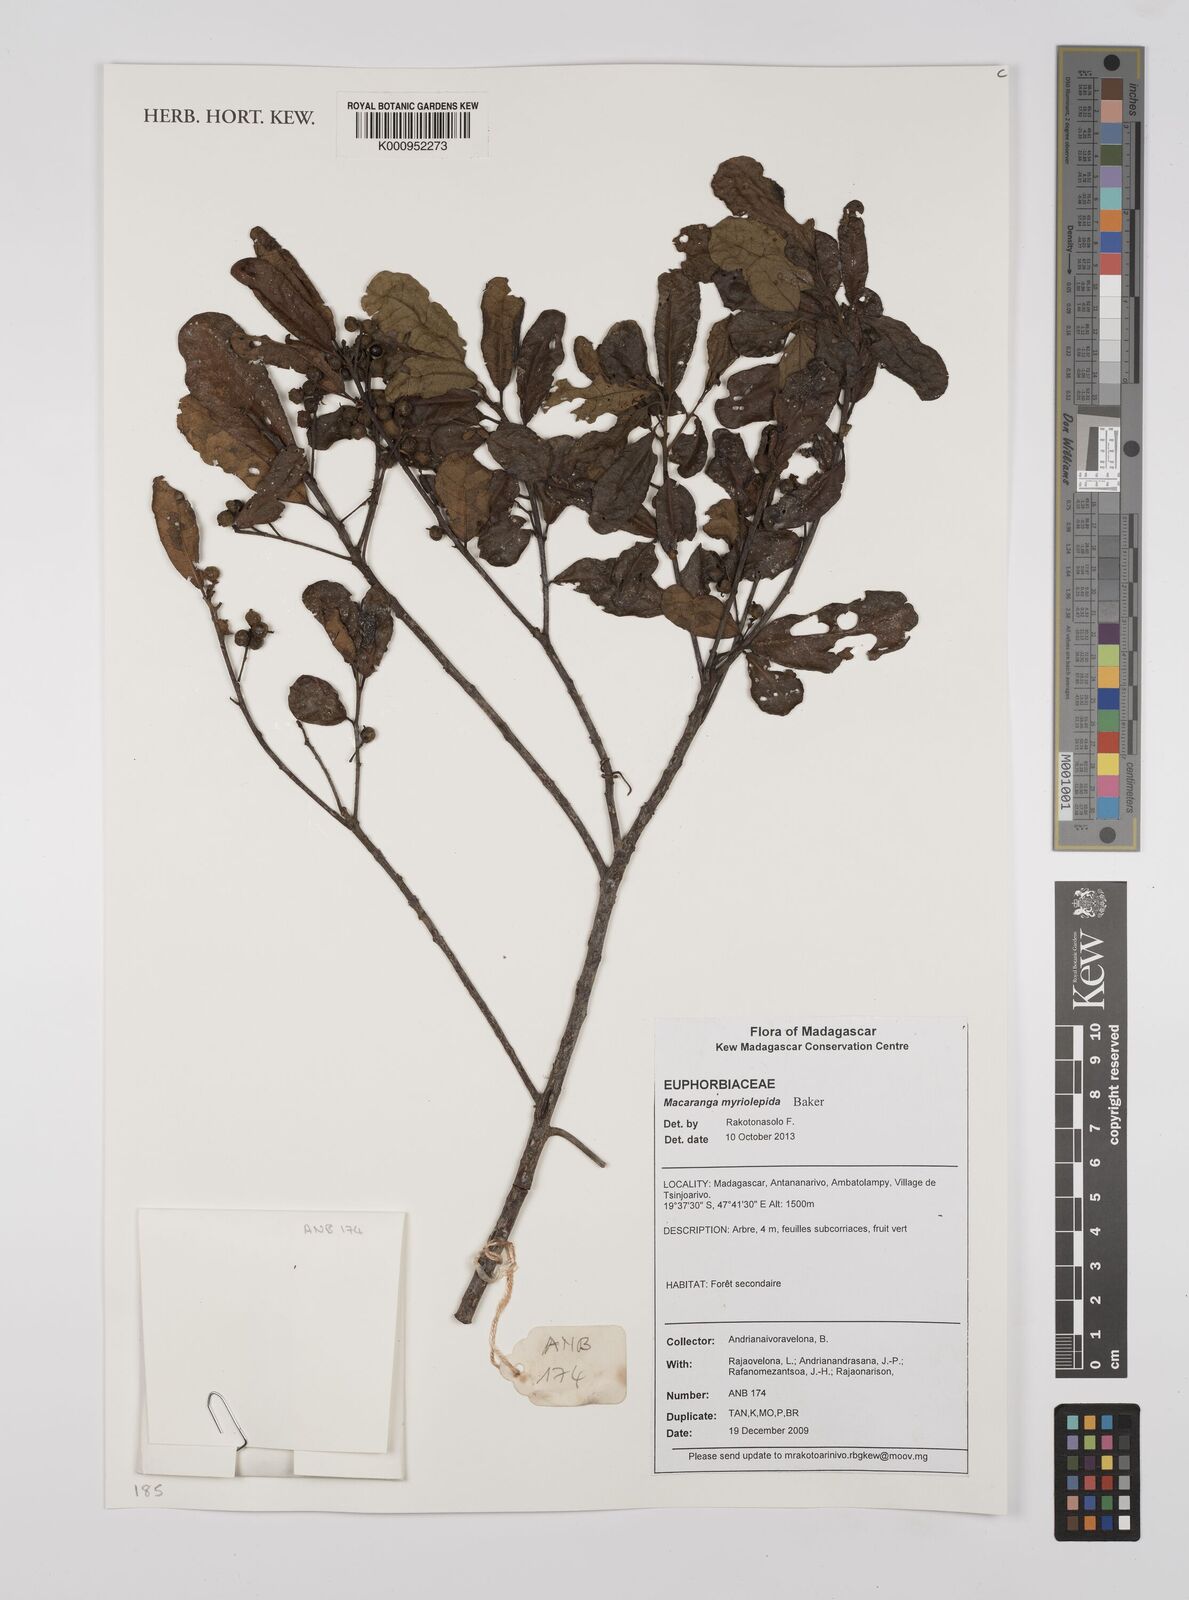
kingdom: Plantae
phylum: Tracheophyta
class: Magnoliopsida
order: Malpighiales
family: Euphorbiaceae
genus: Macaranga
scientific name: Macaranga myriolepida
